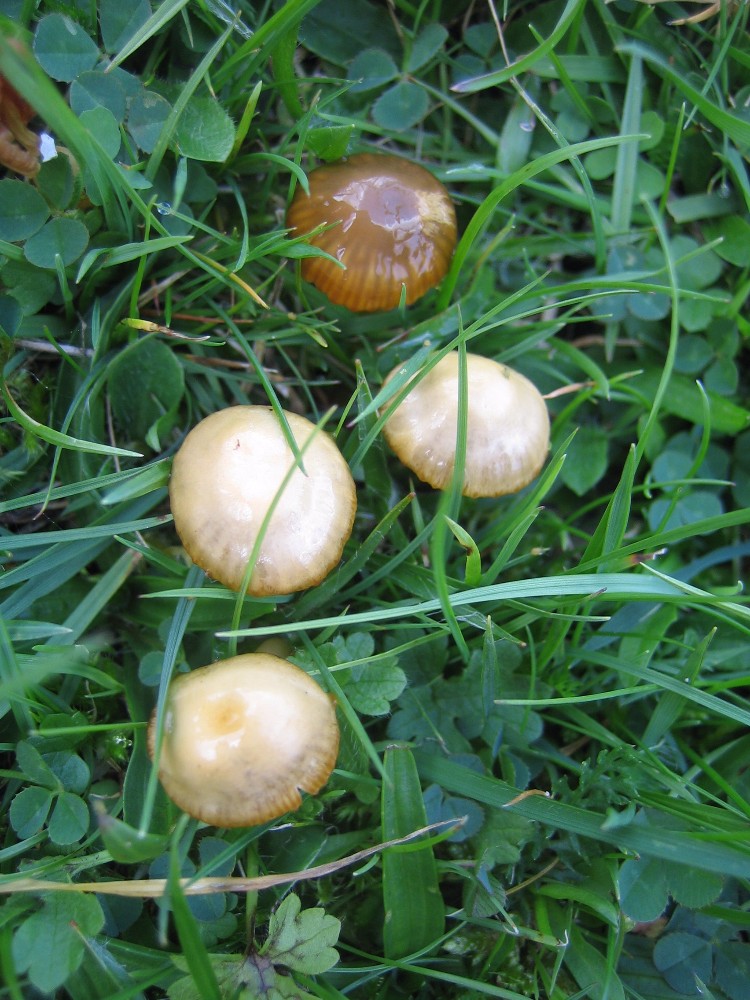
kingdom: Fungi
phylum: Basidiomycota
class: Agaricomycetes
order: Agaricales
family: Hygrophoraceae
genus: Gliophorus
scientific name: Gliophorus psittacinus
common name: papegøje-vokshat
